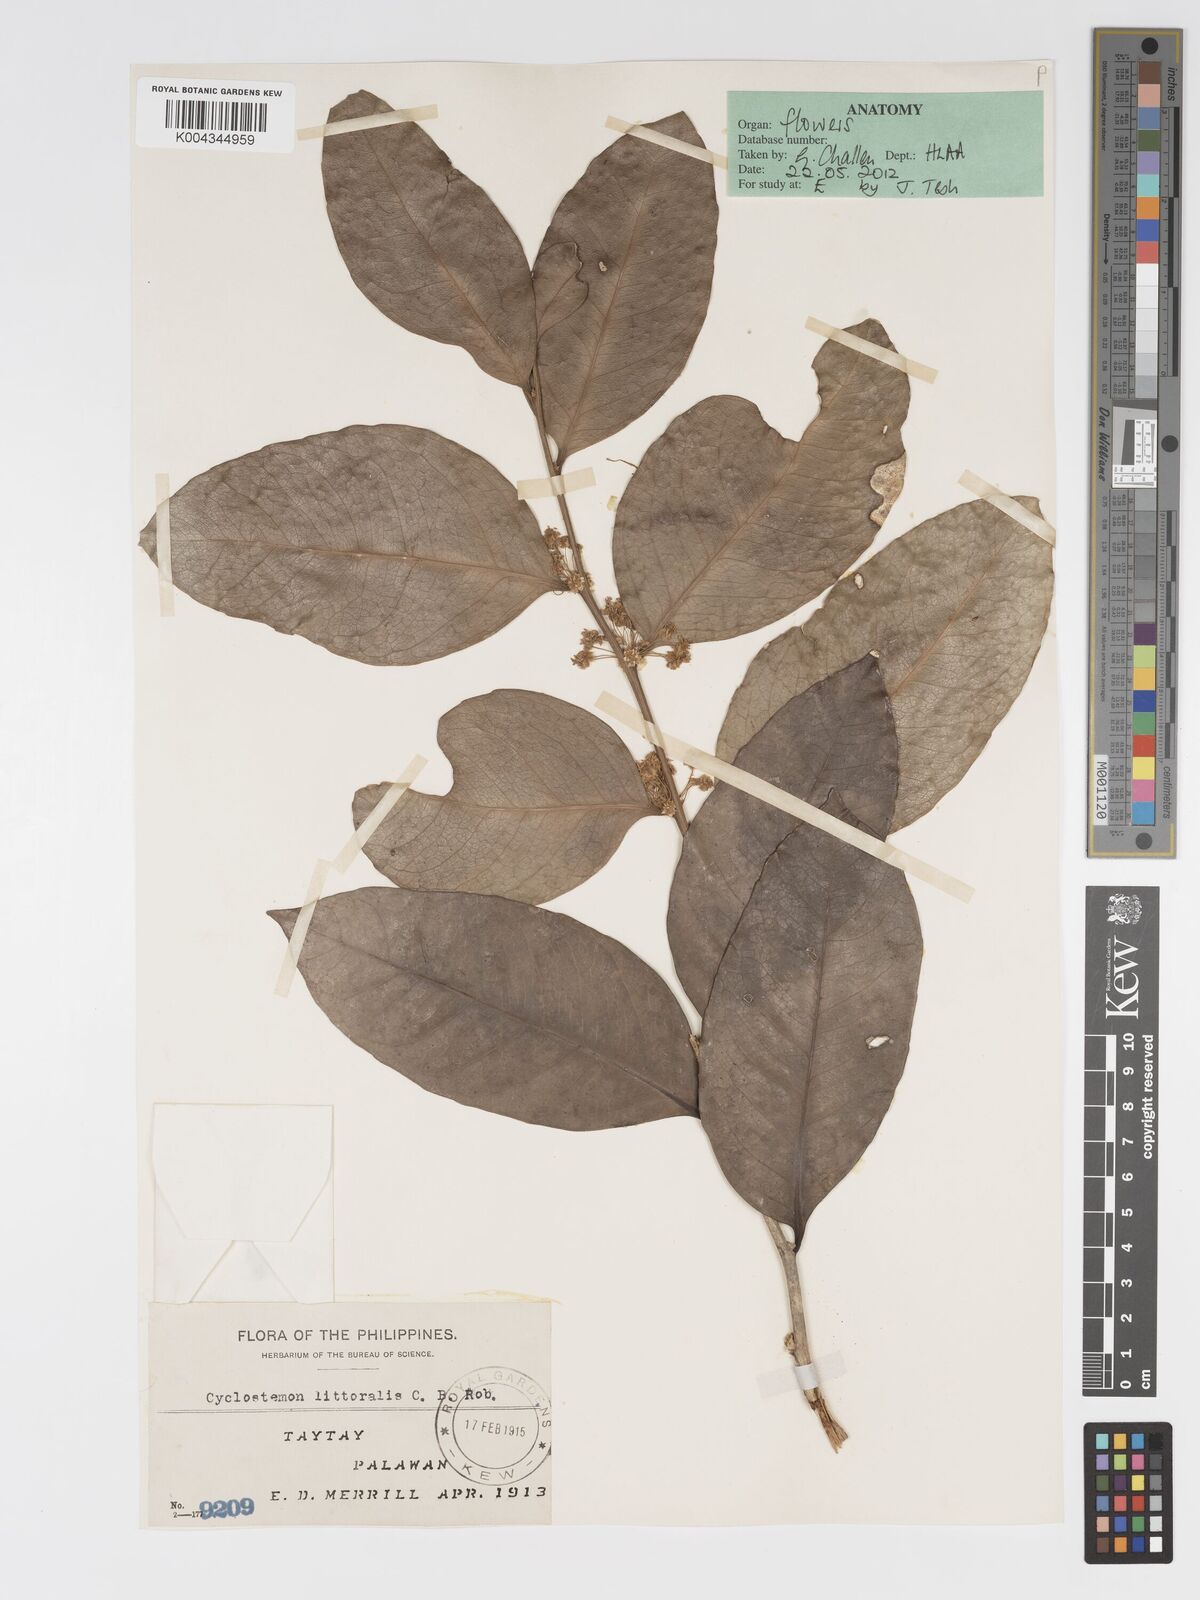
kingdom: Plantae
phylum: Tracheophyta
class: Magnoliopsida
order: Malpighiales
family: Putranjivaceae
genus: Drypetes
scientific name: Drypetes littoralis
